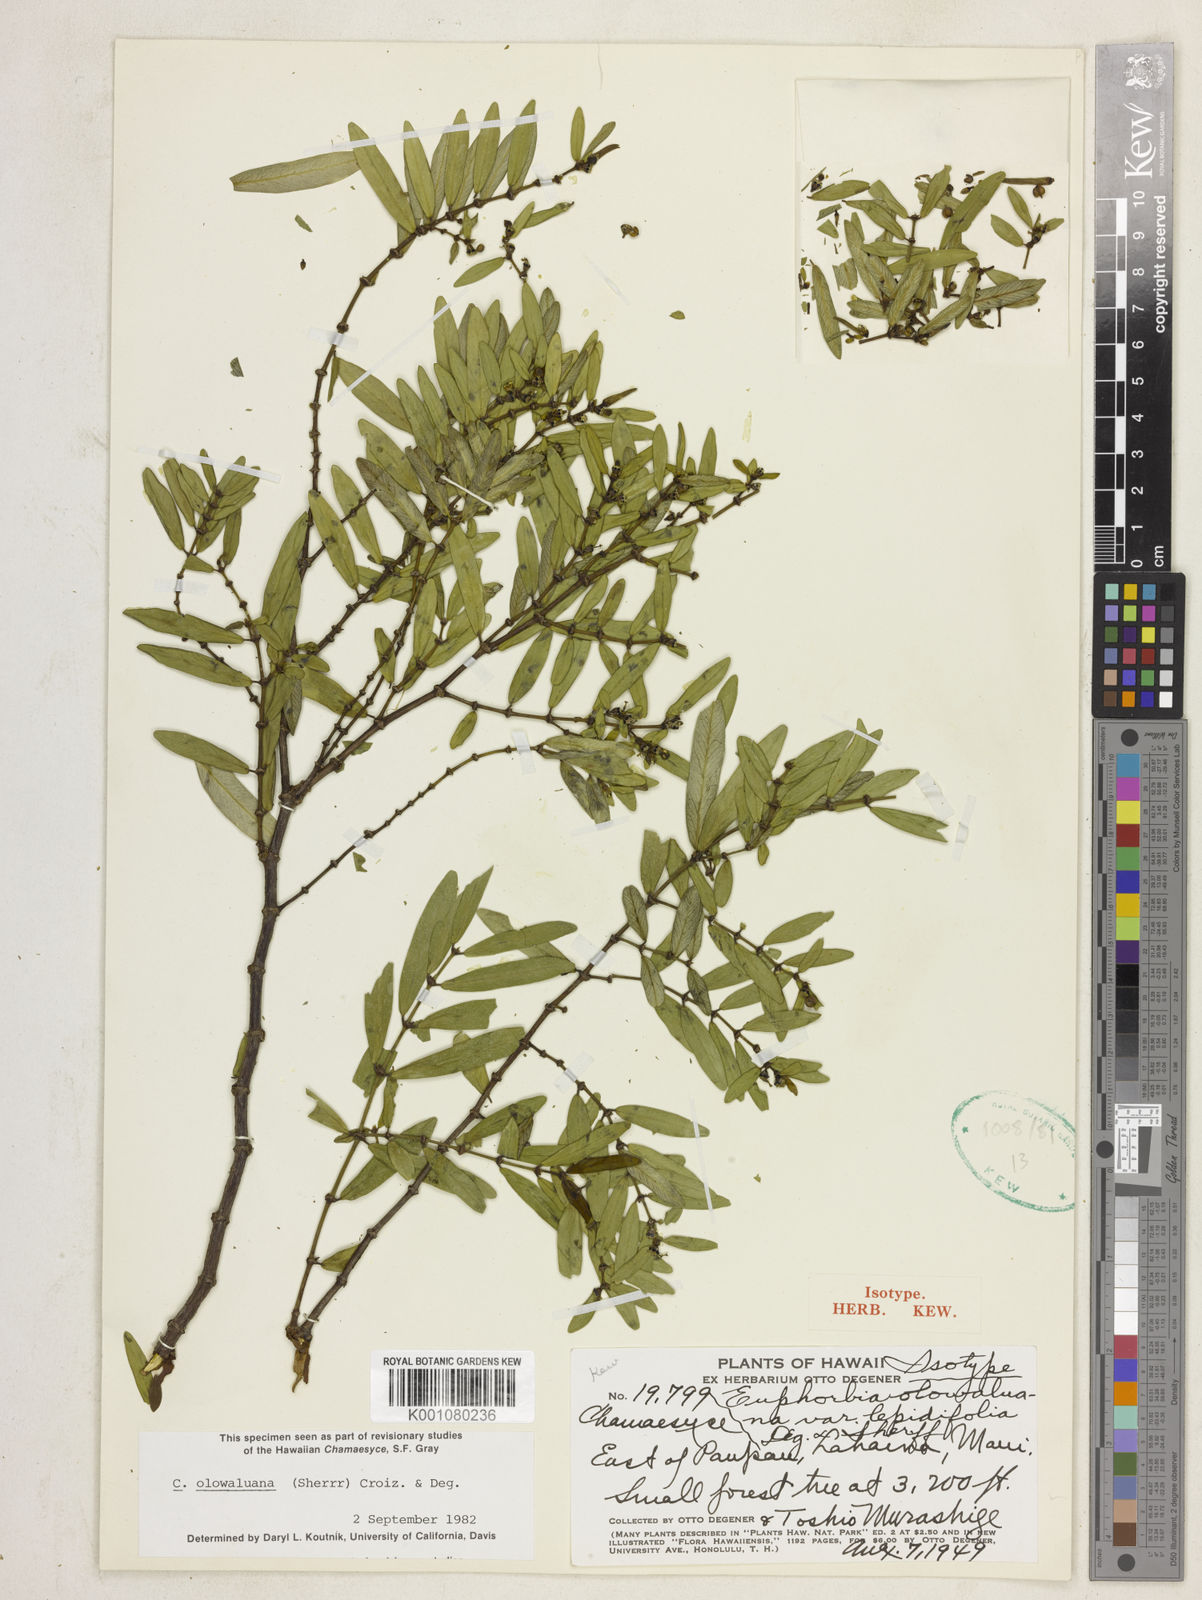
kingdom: Plantae
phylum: Tracheophyta
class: Magnoliopsida
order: Malpighiales
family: Euphorbiaceae
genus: Euphorbia
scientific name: Euphorbia olowaluana
